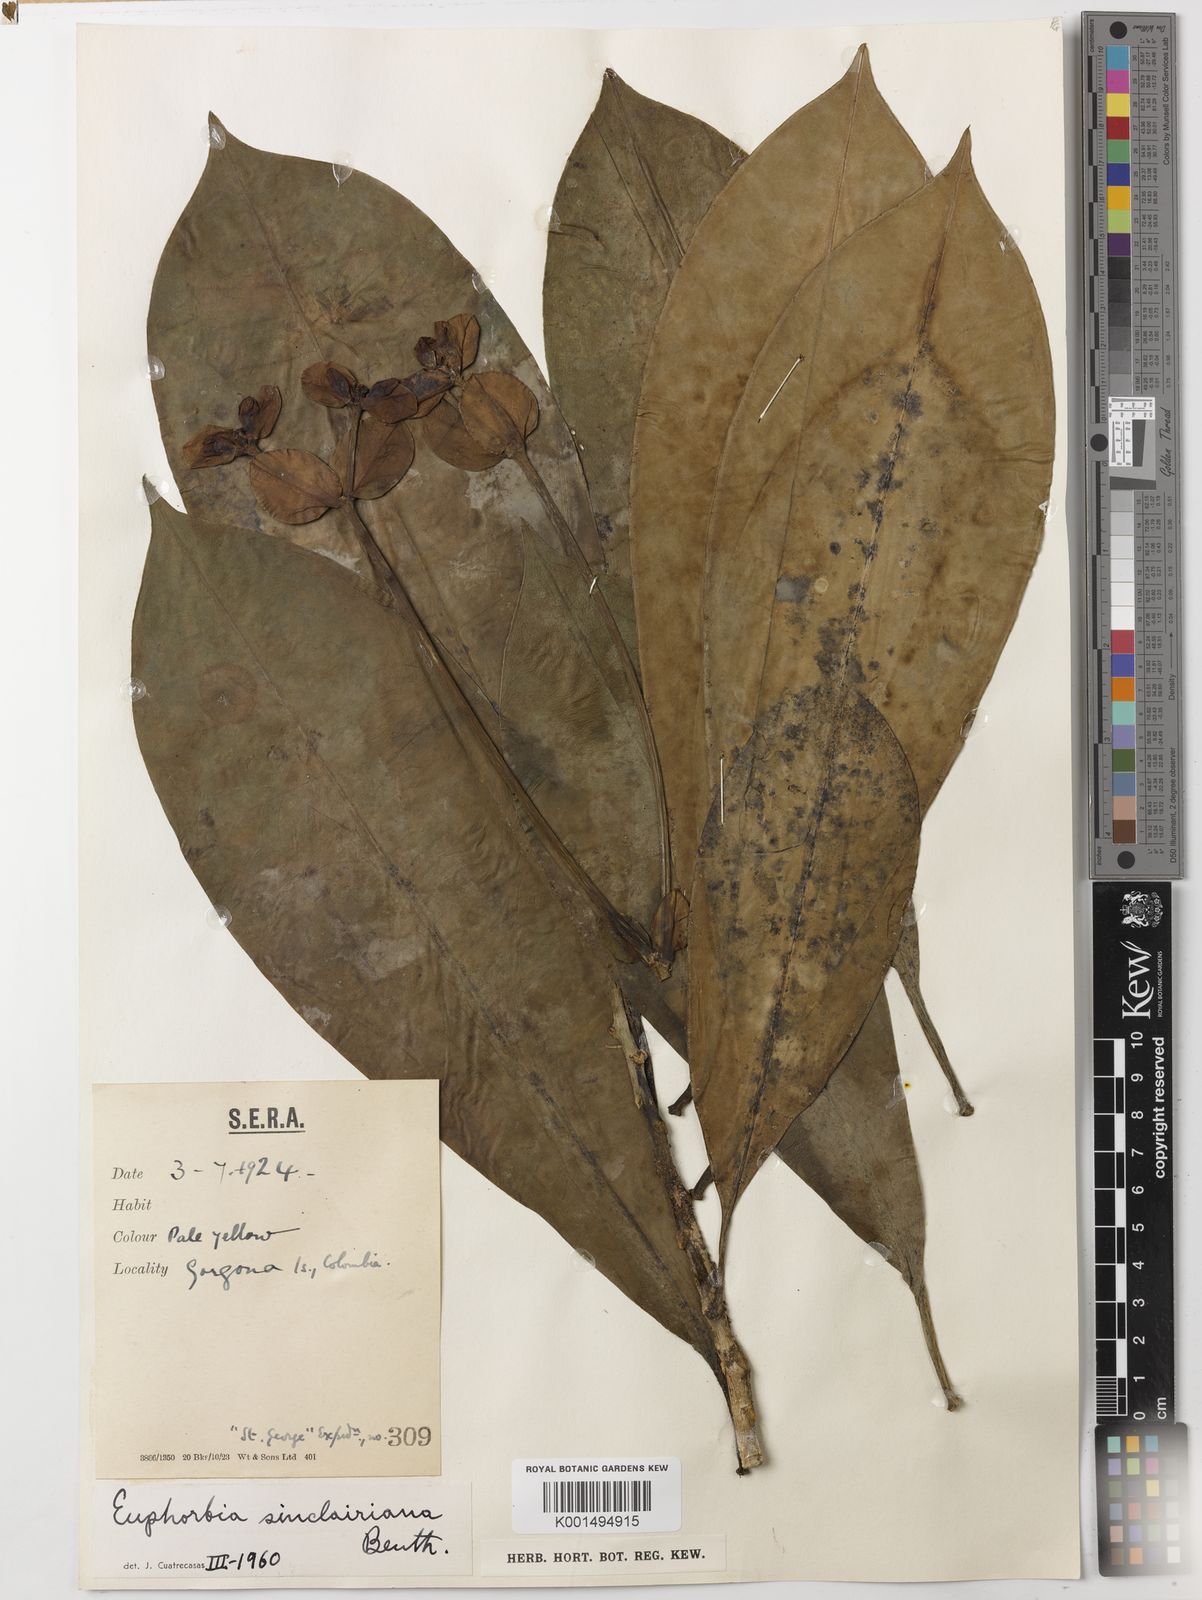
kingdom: Plantae
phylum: Tracheophyta
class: Magnoliopsida
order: Malpighiales
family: Euphorbiaceae
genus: Euphorbia
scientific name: Euphorbia sinclairiana
